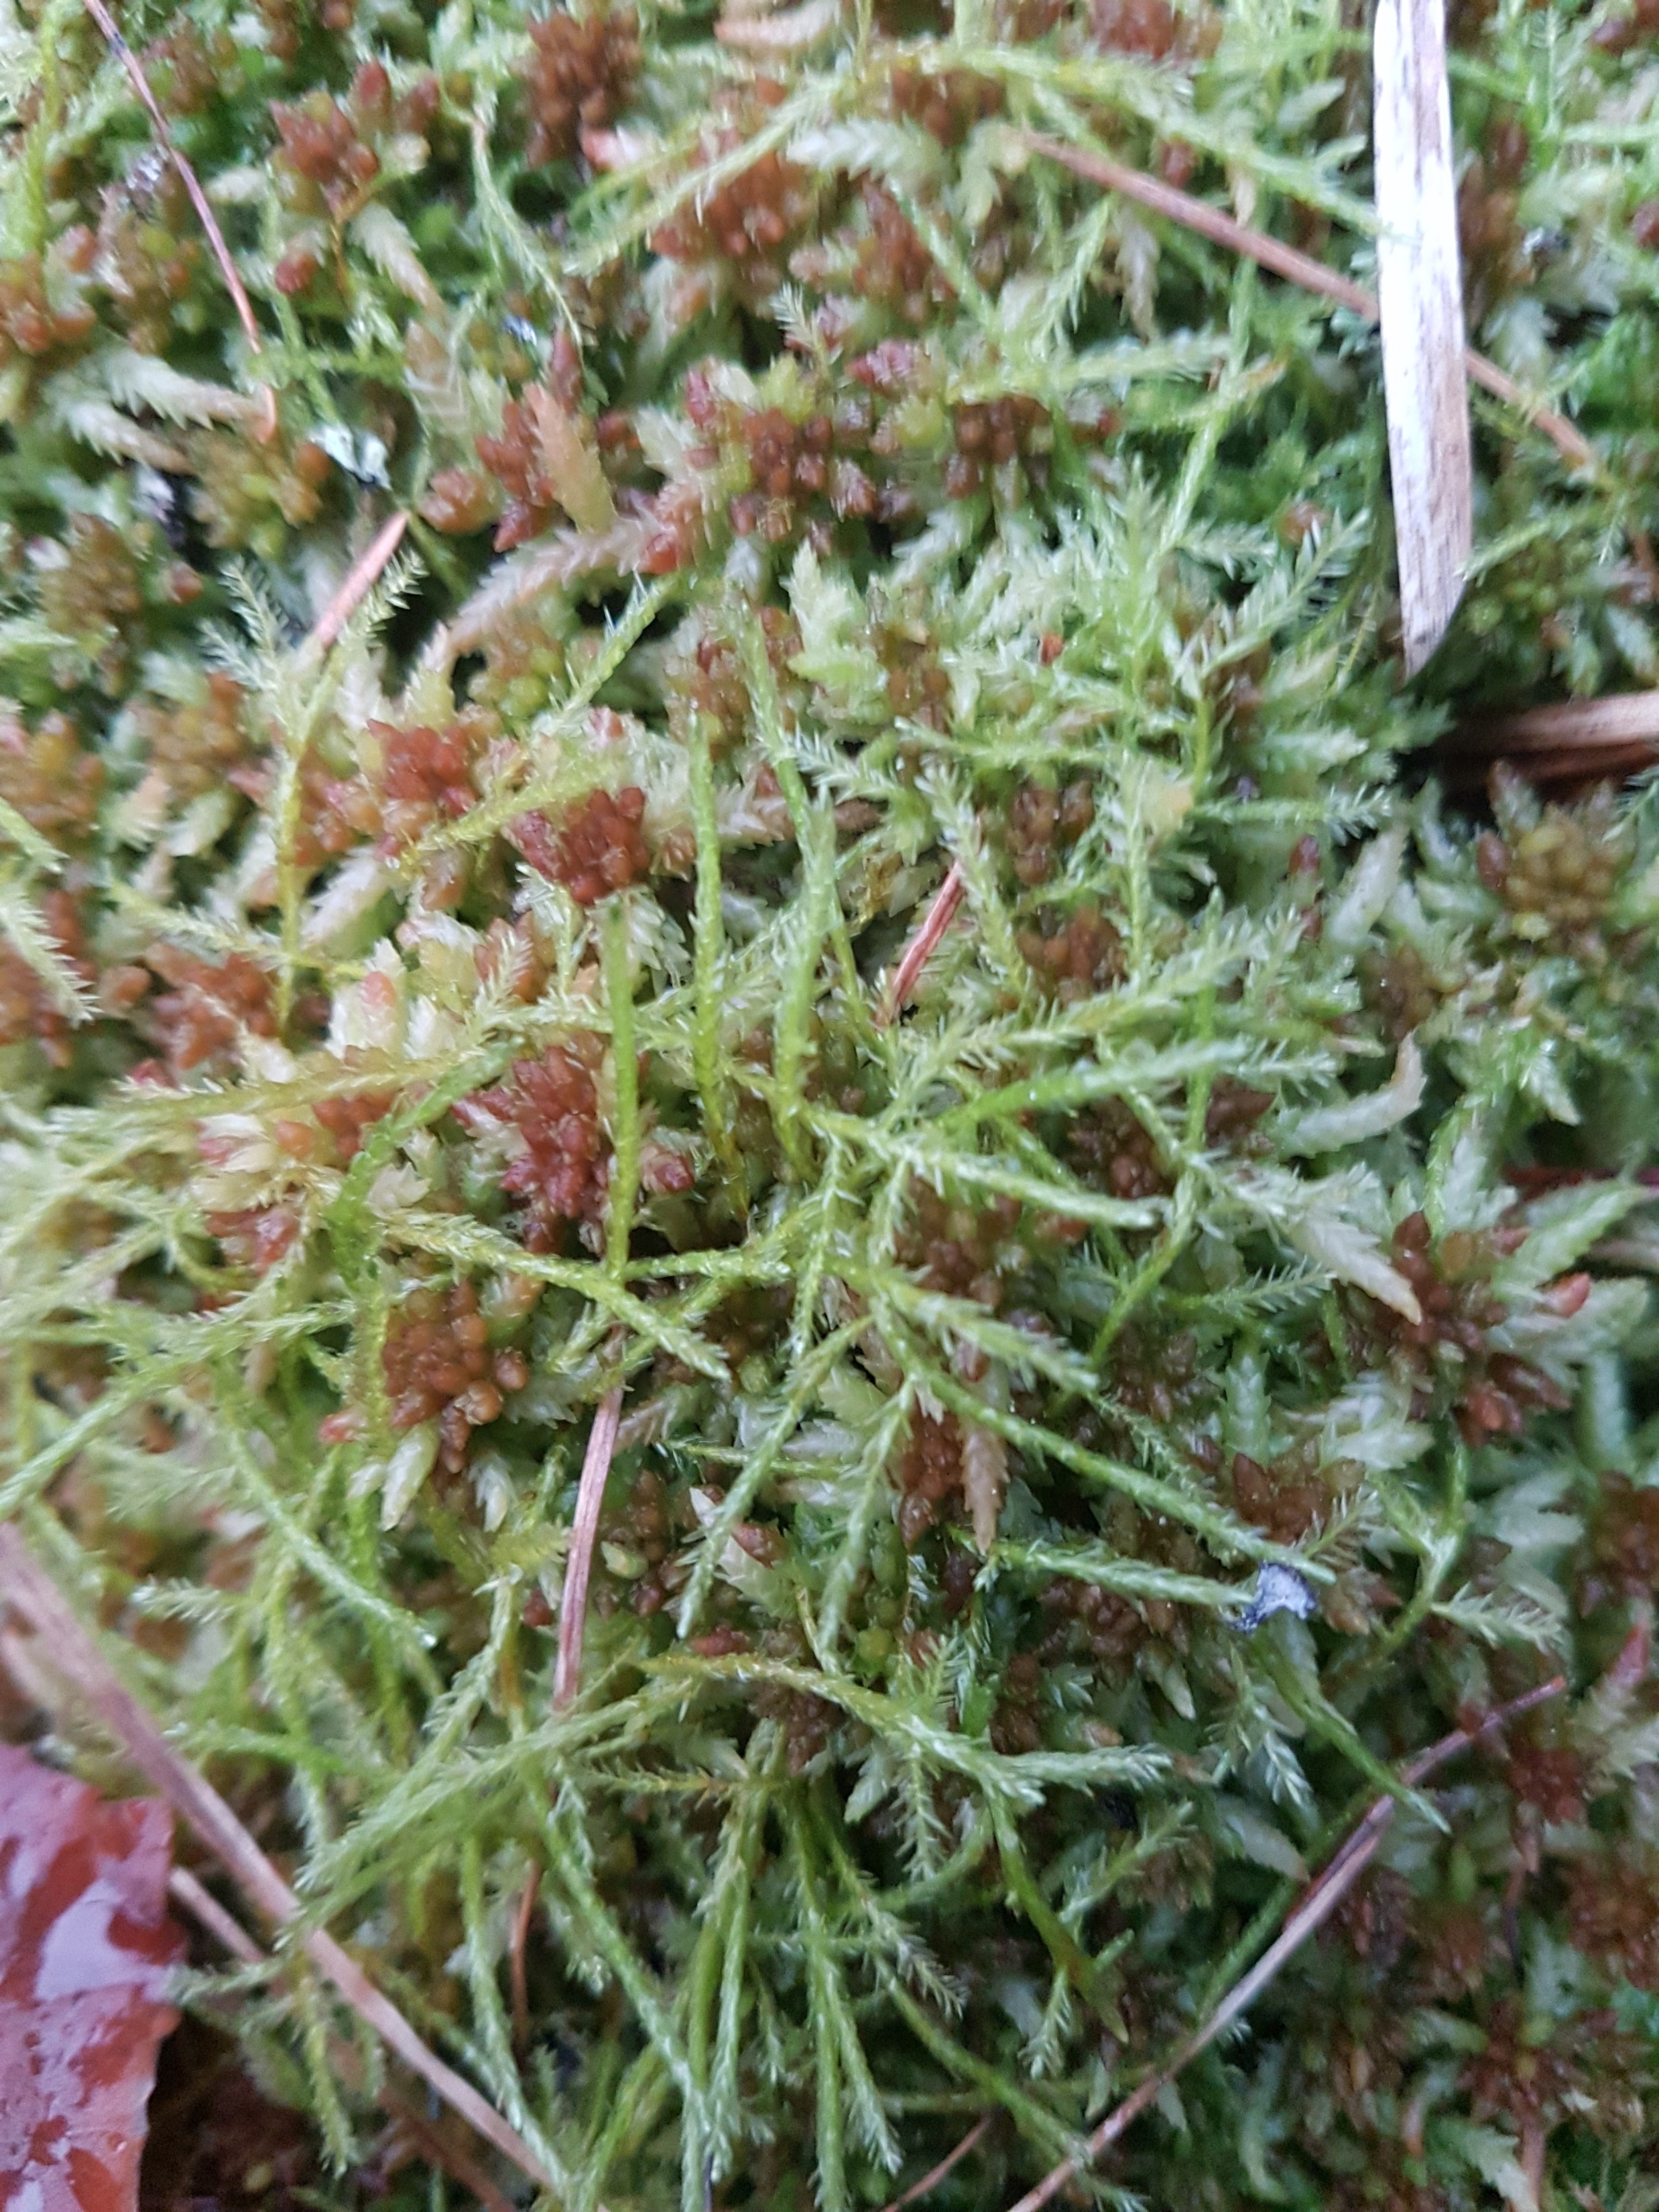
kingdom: Plantae
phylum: Bryophyta
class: Bryopsida
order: Hypnales
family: Calliergonaceae
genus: Straminergon
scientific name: Straminergon stramineum
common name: Tråd-skebladsmos
